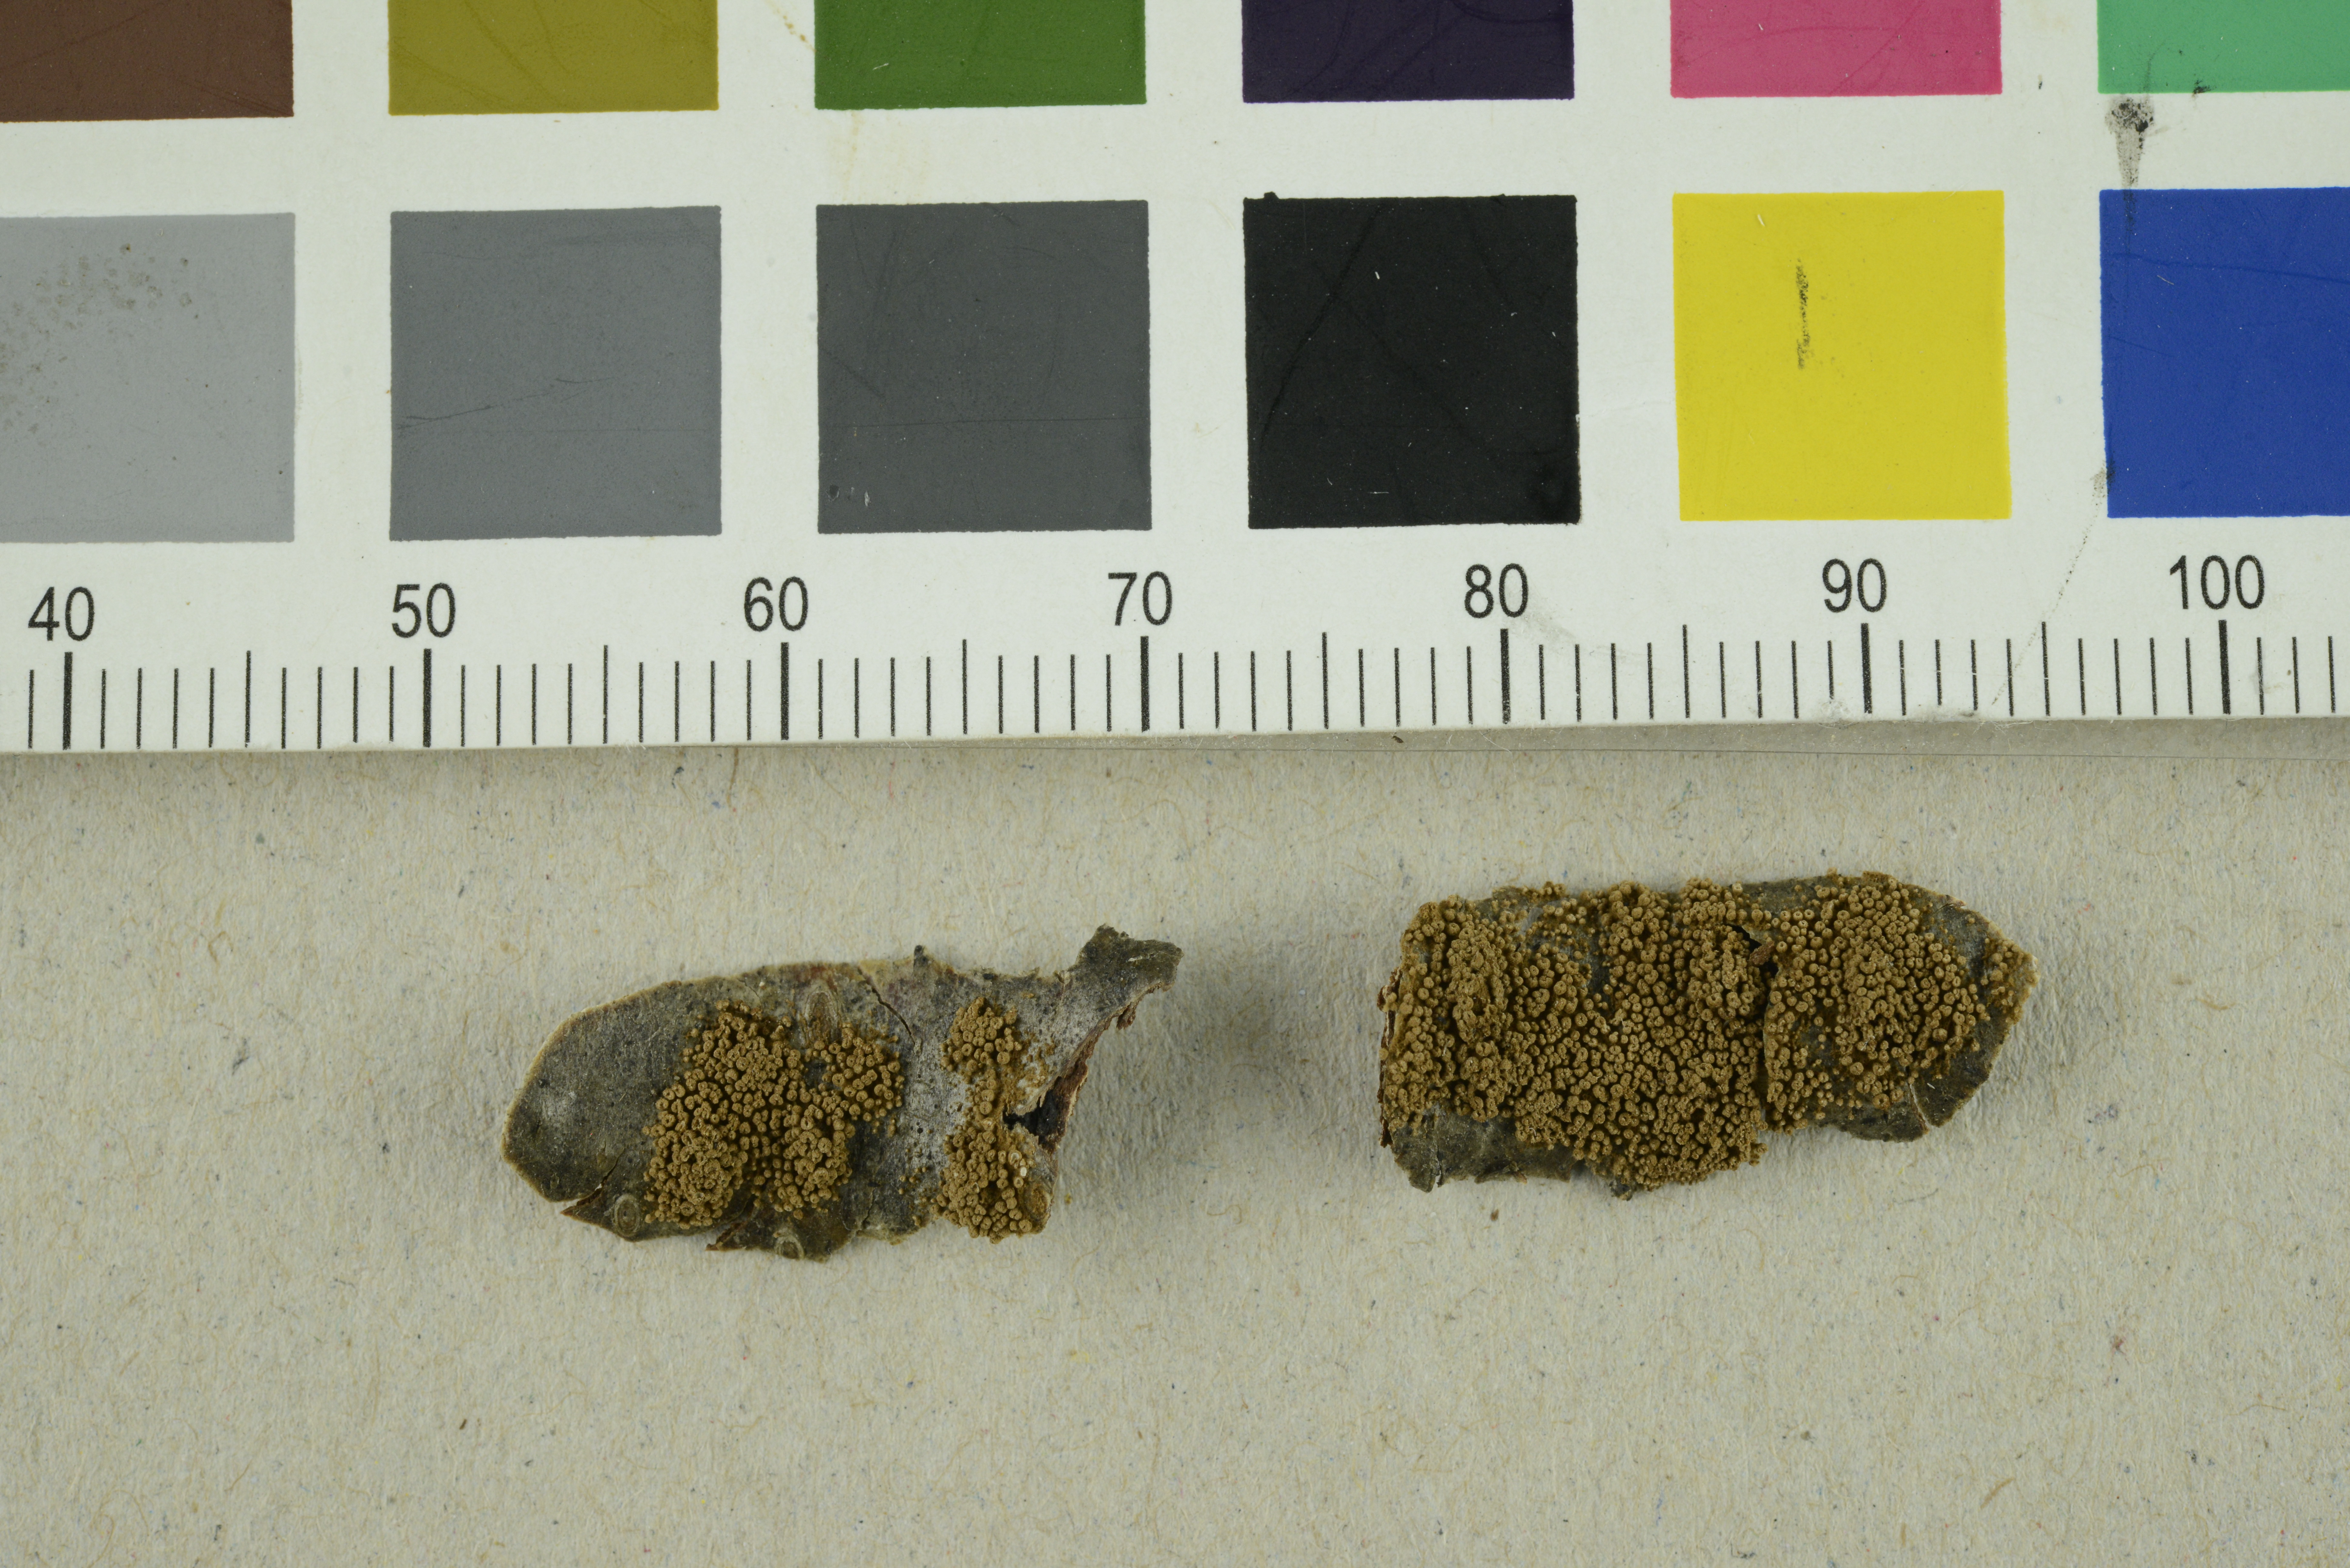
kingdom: Fungi
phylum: Basidiomycota
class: Agaricomycetes
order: Agaricales
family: Niaceae
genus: Merismodes
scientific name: Merismodes fasciculata
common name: Crowded cuplet
